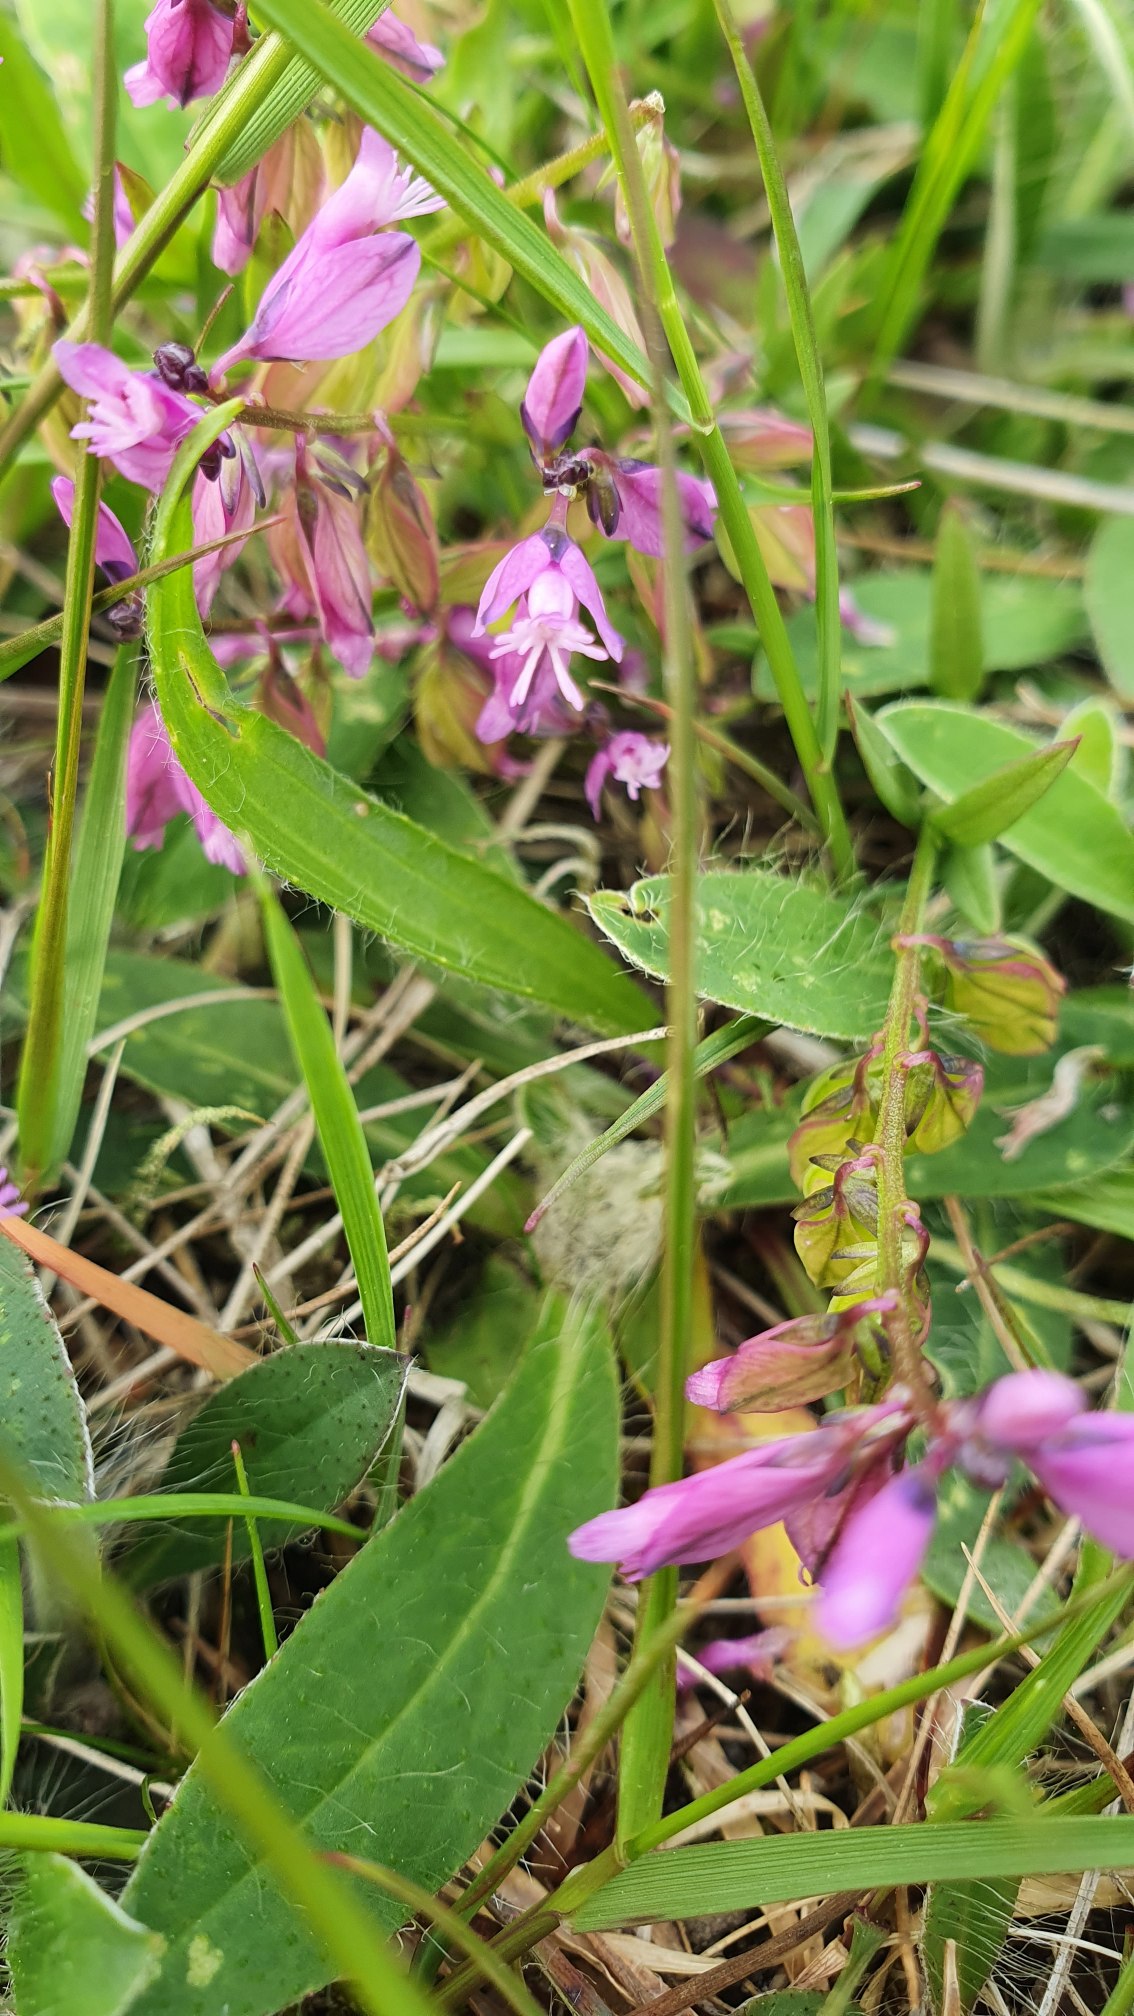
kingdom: Plantae
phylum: Tracheophyta
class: Magnoliopsida
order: Fabales
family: Polygalaceae
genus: Polygala
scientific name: Polygala vulgaris
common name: Almindelig mælkeurt
